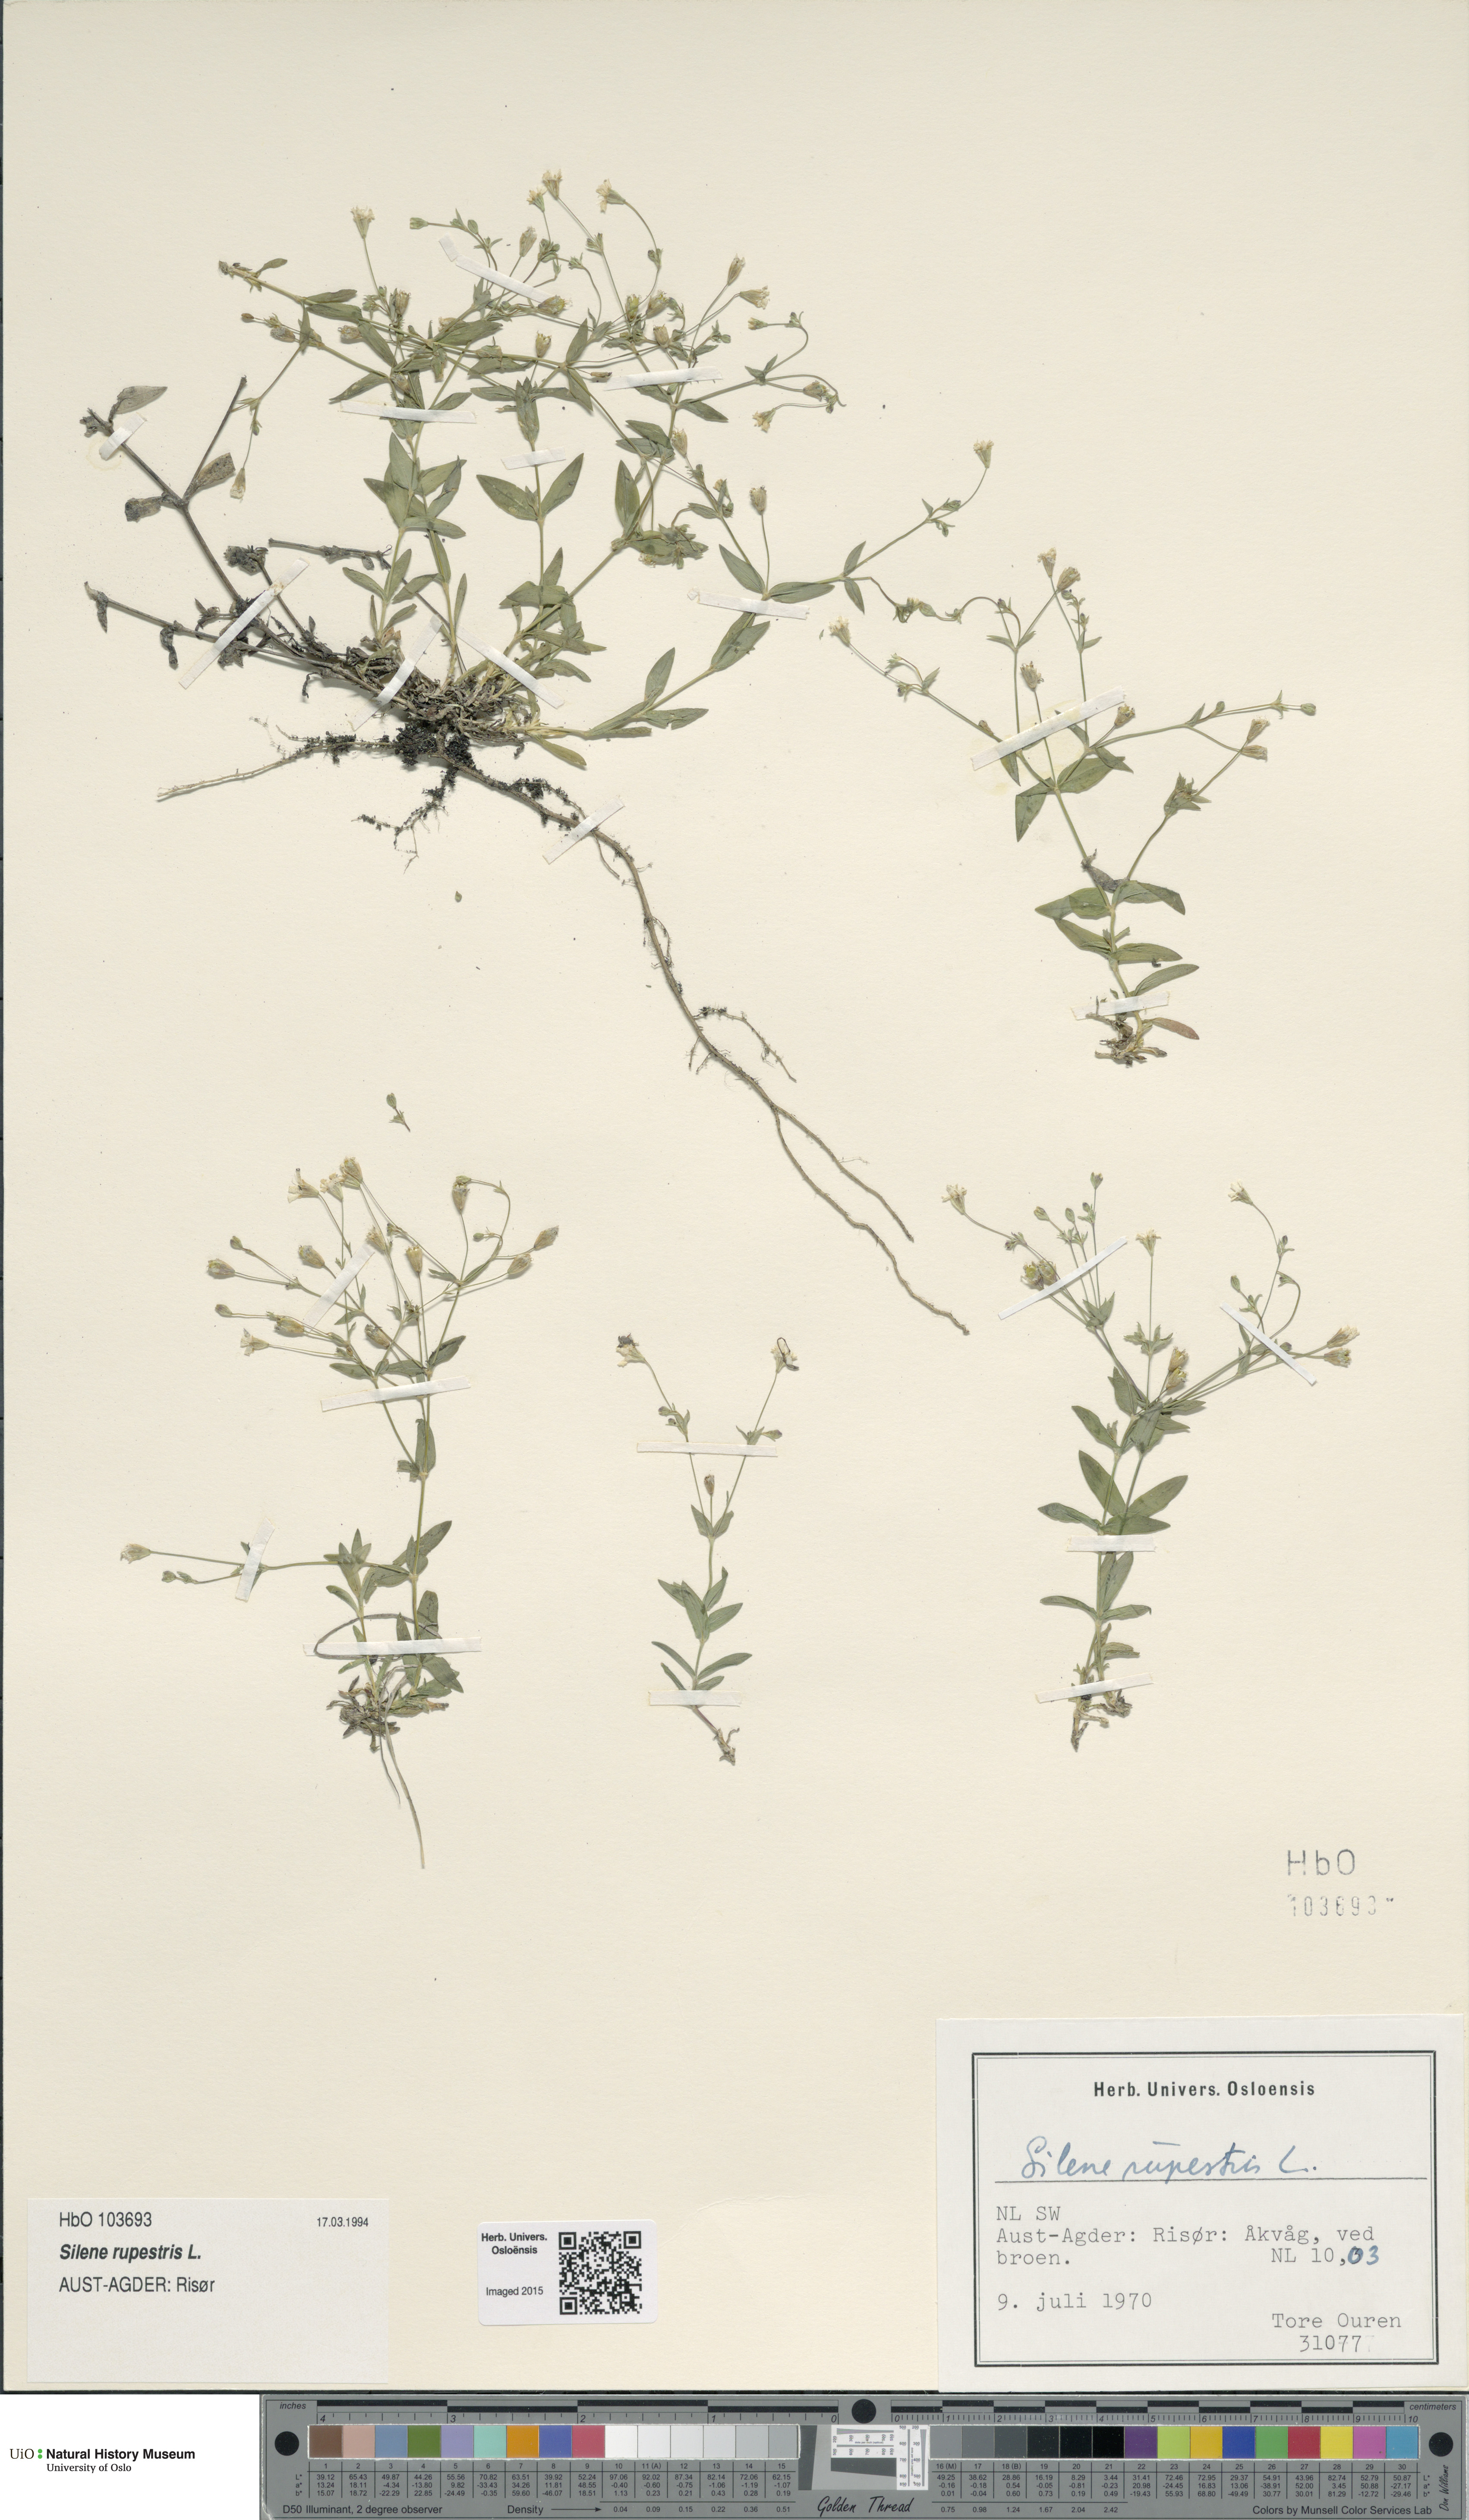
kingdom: Plantae
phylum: Tracheophyta
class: Magnoliopsida
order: Caryophyllales
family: Caryophyllaceae
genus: Atocion
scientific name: Atocion rupestre
